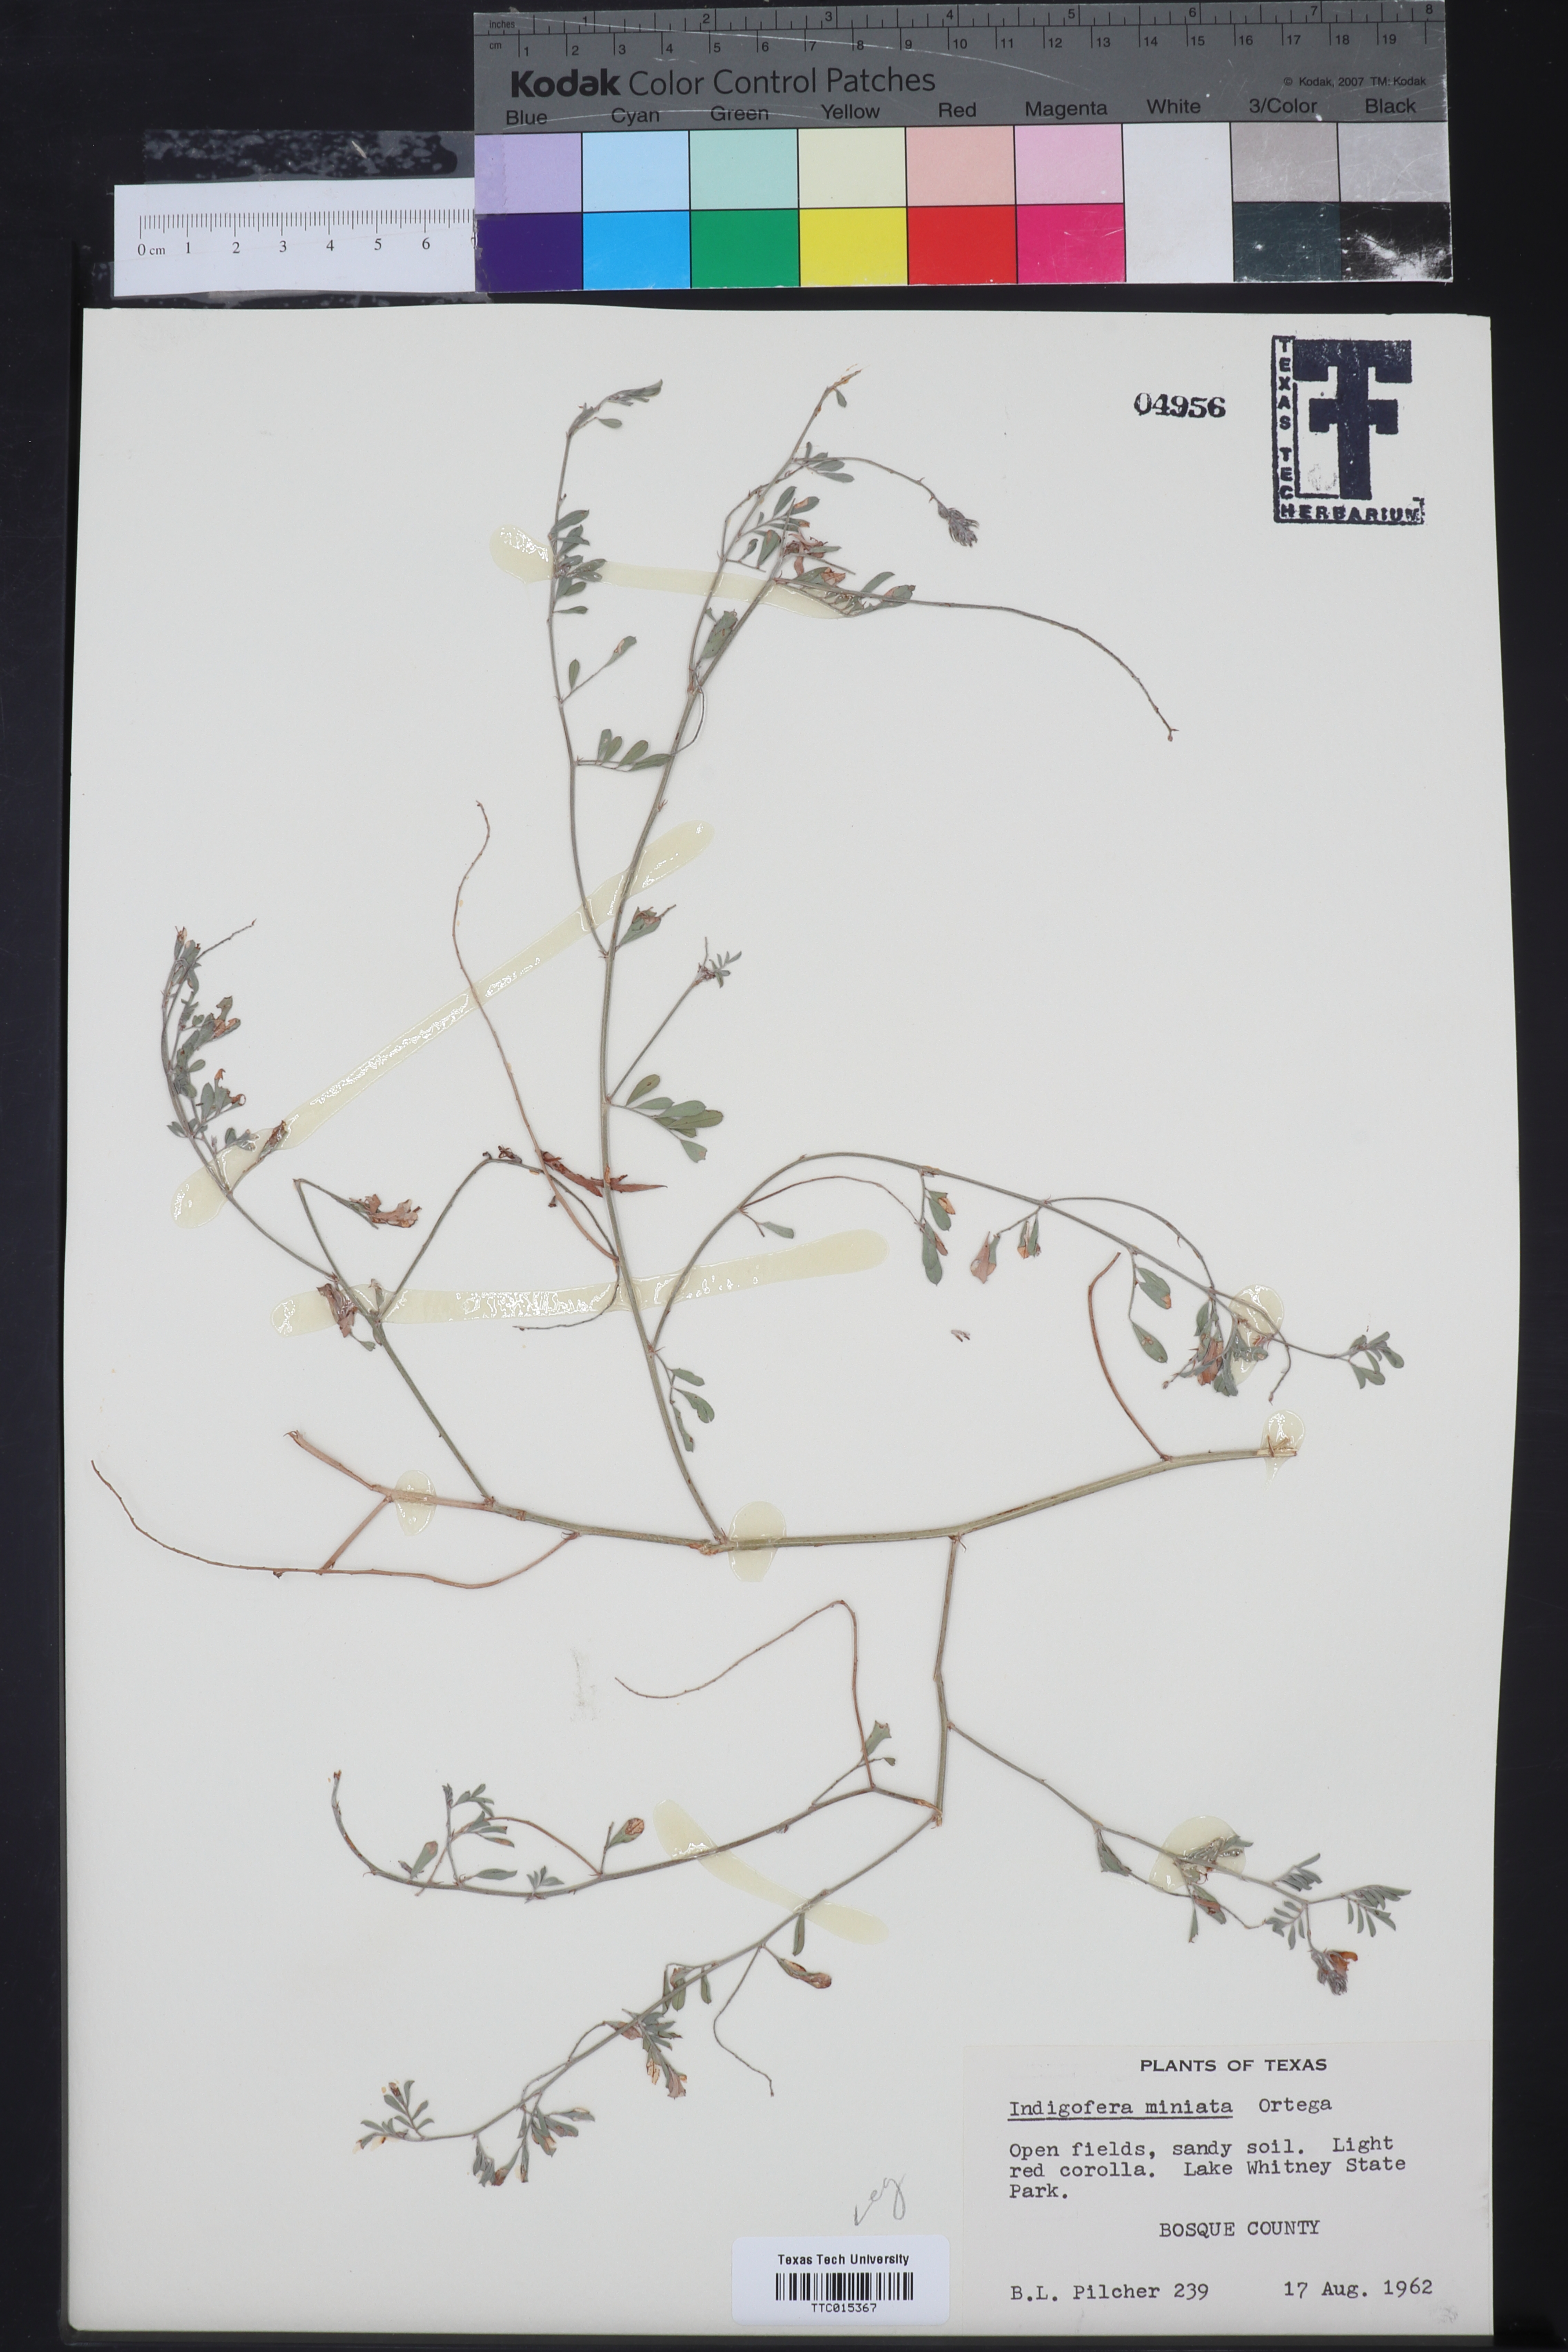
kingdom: Plantae
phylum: Tracheophyta
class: Magnoliopsida
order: Fabales
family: Fabaceae
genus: Indigofera
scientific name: Indigofera miniata
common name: Coast indigo
